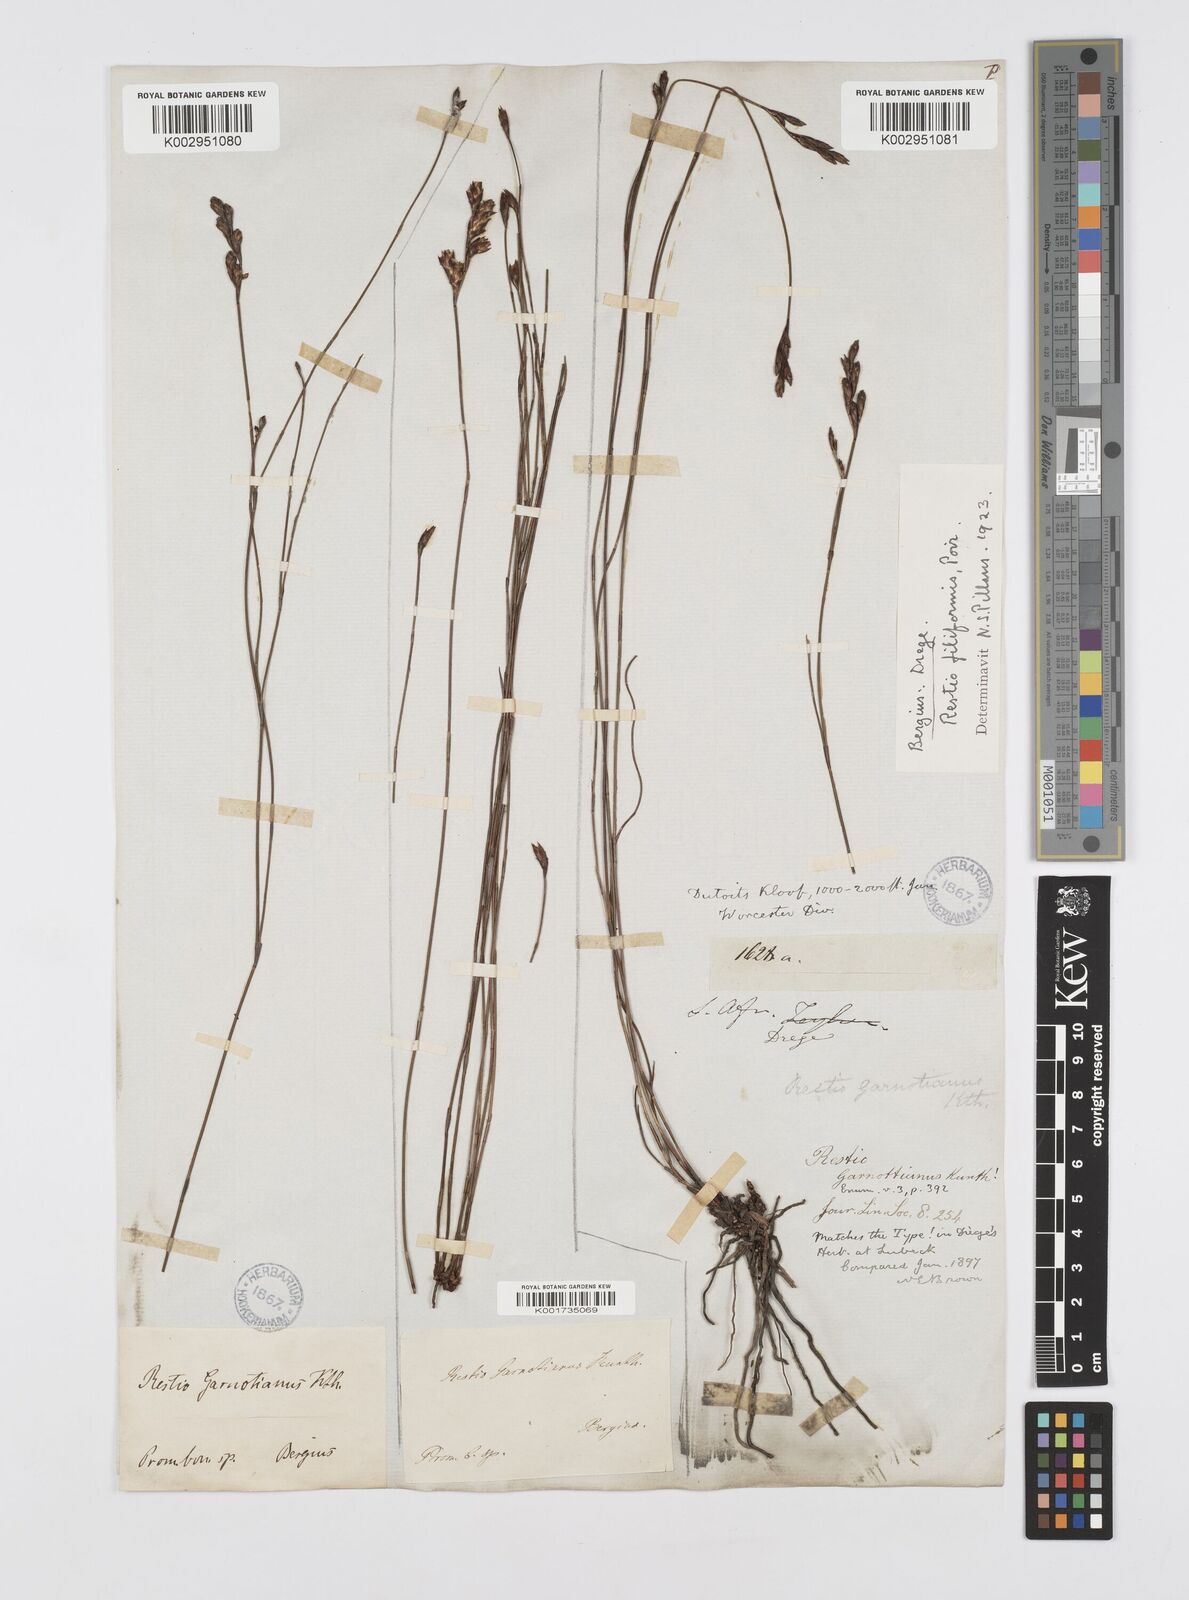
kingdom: Plantae
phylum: Tracheophyta
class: Liliopsida
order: Poales
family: Restionaceae
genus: Restio
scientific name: Restio filiformis
